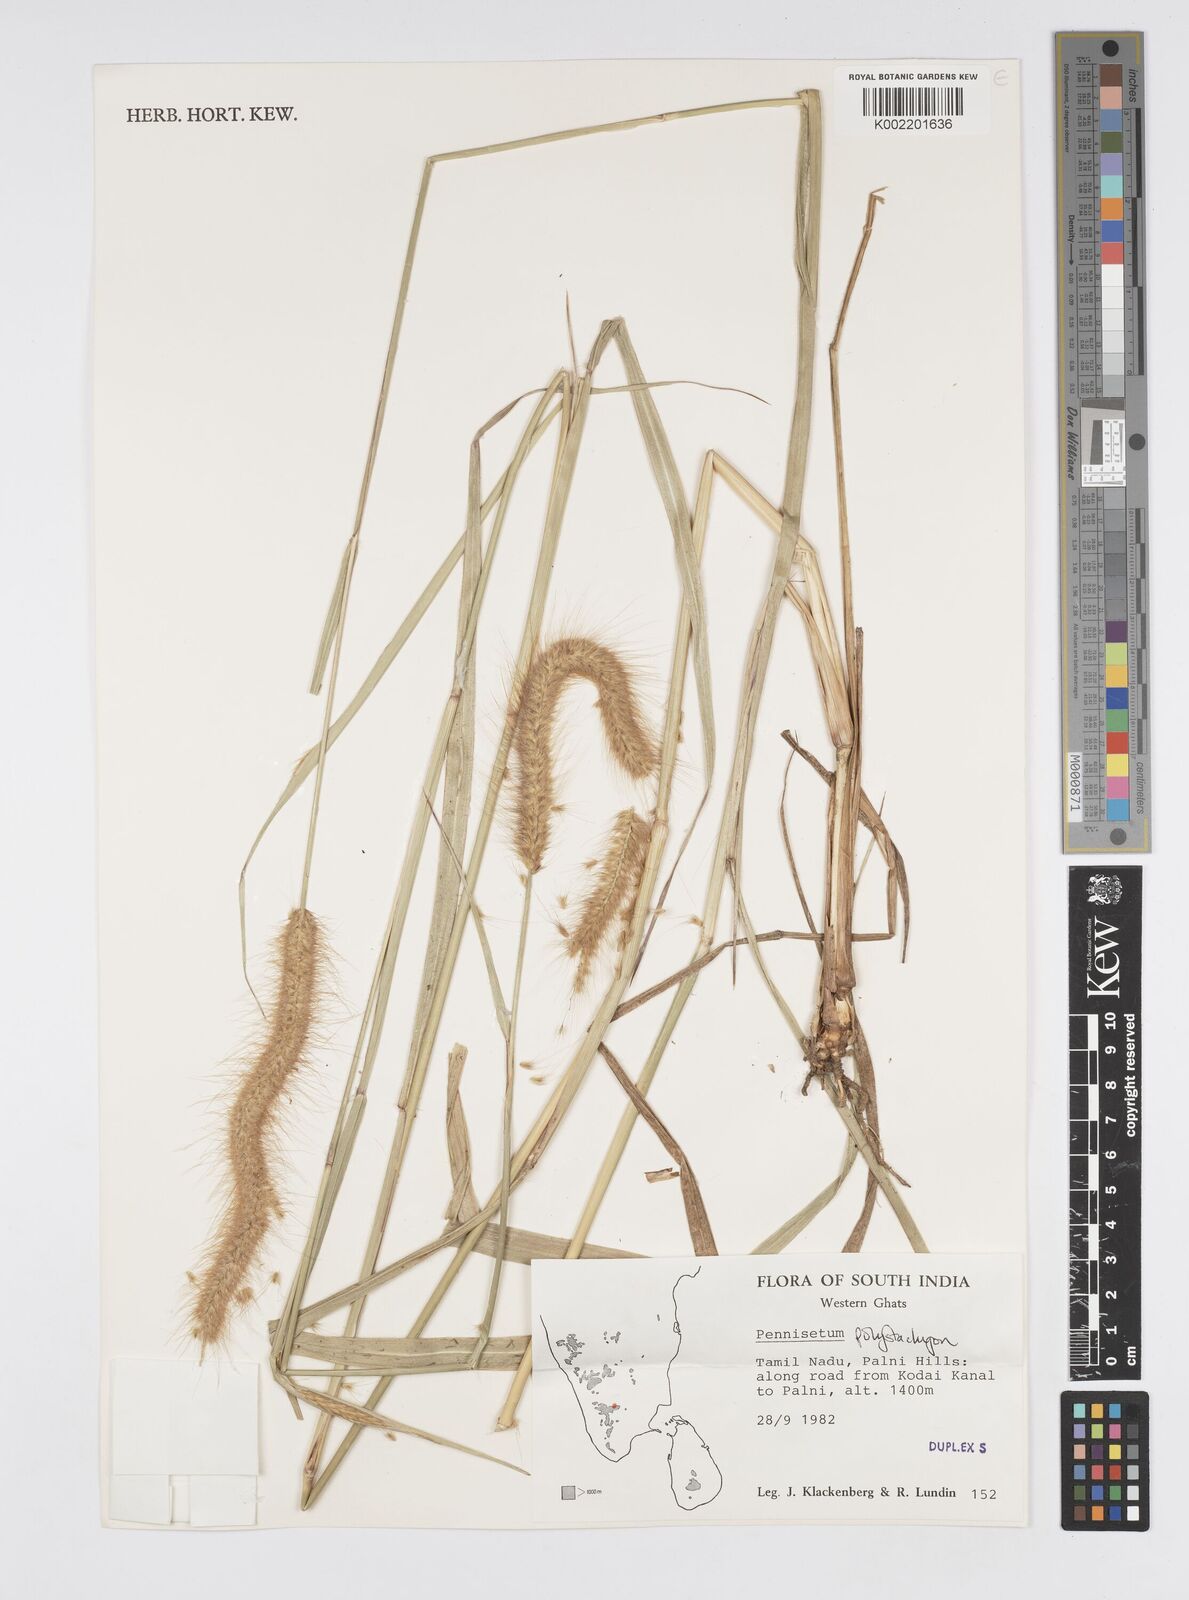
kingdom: Plantae
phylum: Tracheophyta
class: Liliopsida
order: Poales
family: Poaceae
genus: Setaria
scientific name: Setaria parviflora
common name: Knotroot bristle-grass
